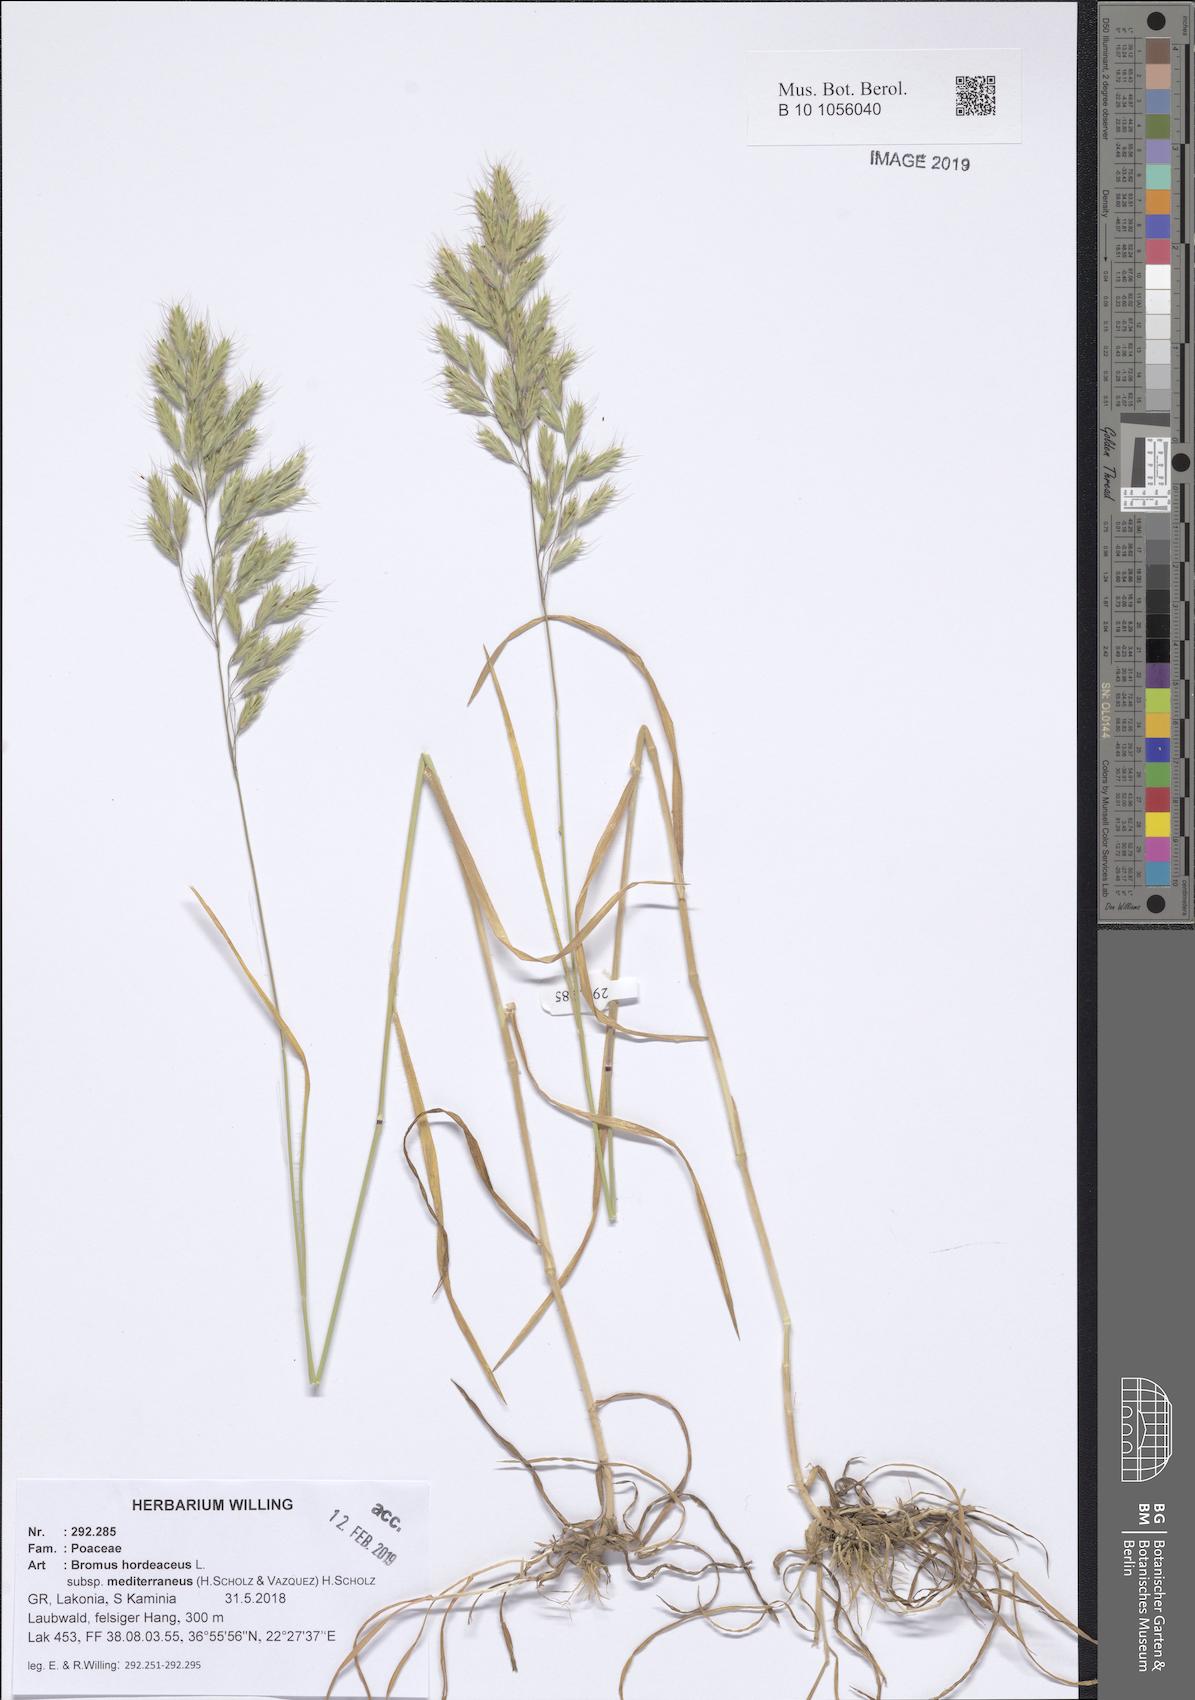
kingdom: Plantae
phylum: Tracheophyta
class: Liliopsida
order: Poales
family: Poaceae
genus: Bromus
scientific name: Bromus hordeaceus
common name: Soft brome
